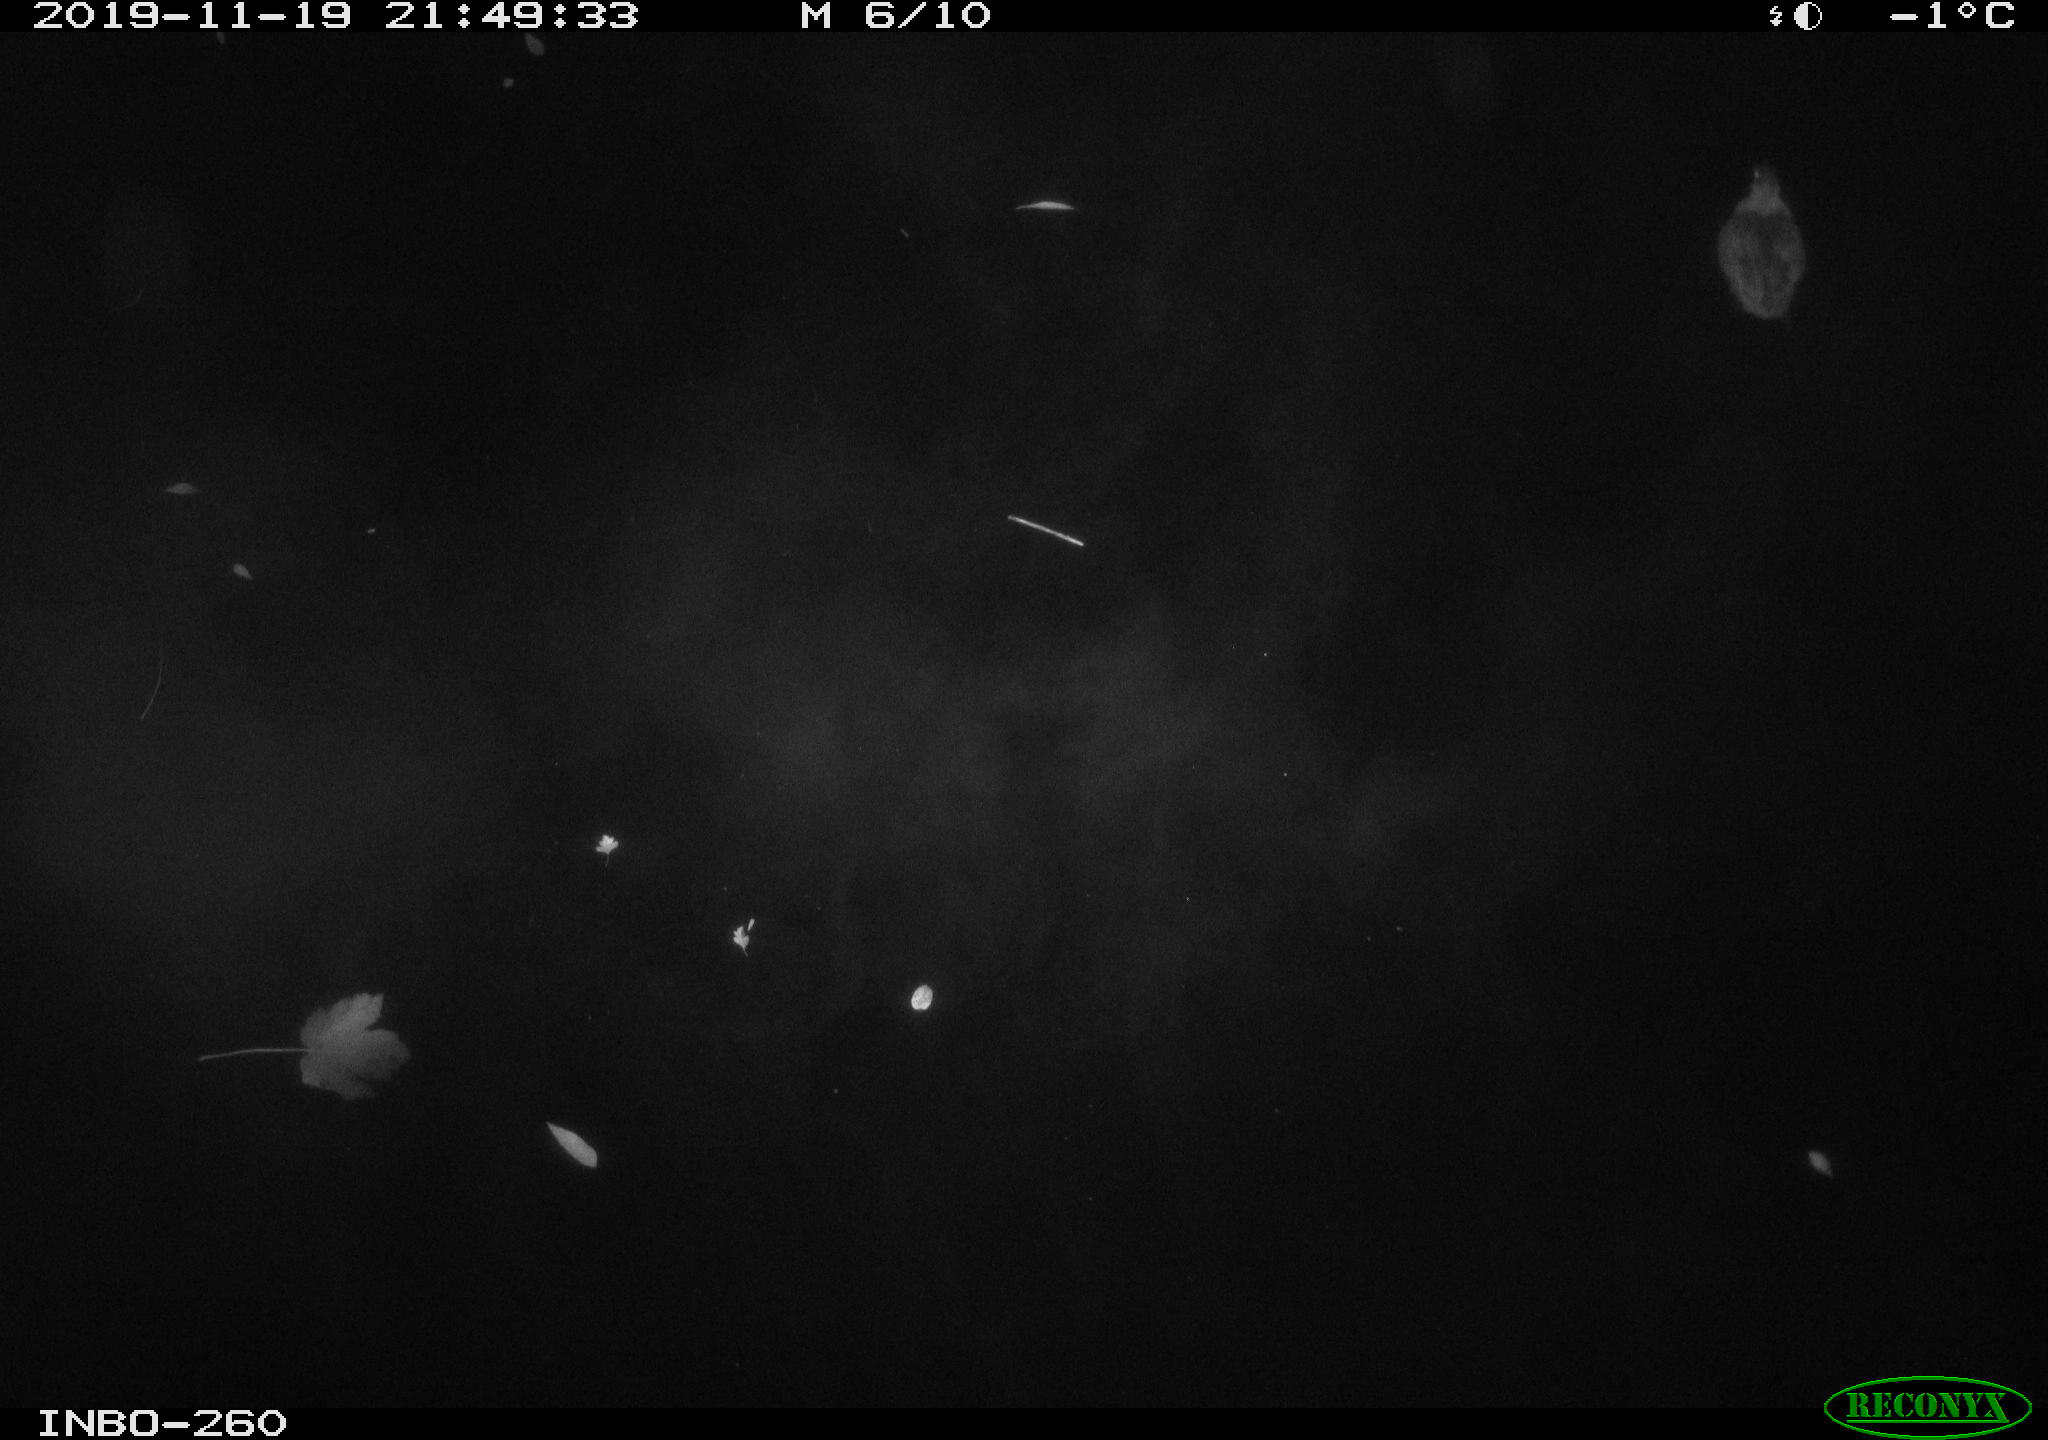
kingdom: Animalia
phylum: Chordata
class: Aves
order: Anseriformes
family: Anatidae
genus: Anas
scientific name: Anas platyrhynchos
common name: Mallard
